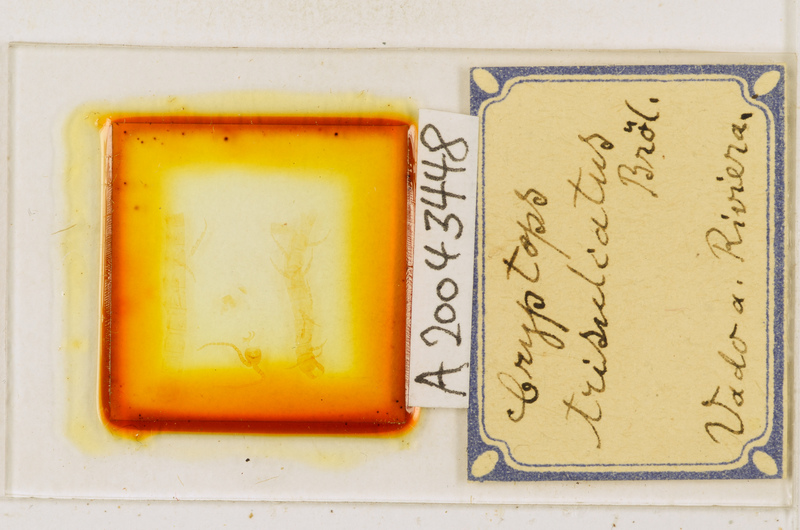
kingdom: Animalia
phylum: Arthropoda
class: Chilopoda
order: Scolopendromorpha
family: Cryptopidae
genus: Cryptops
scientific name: Cryptops trisulcatus
